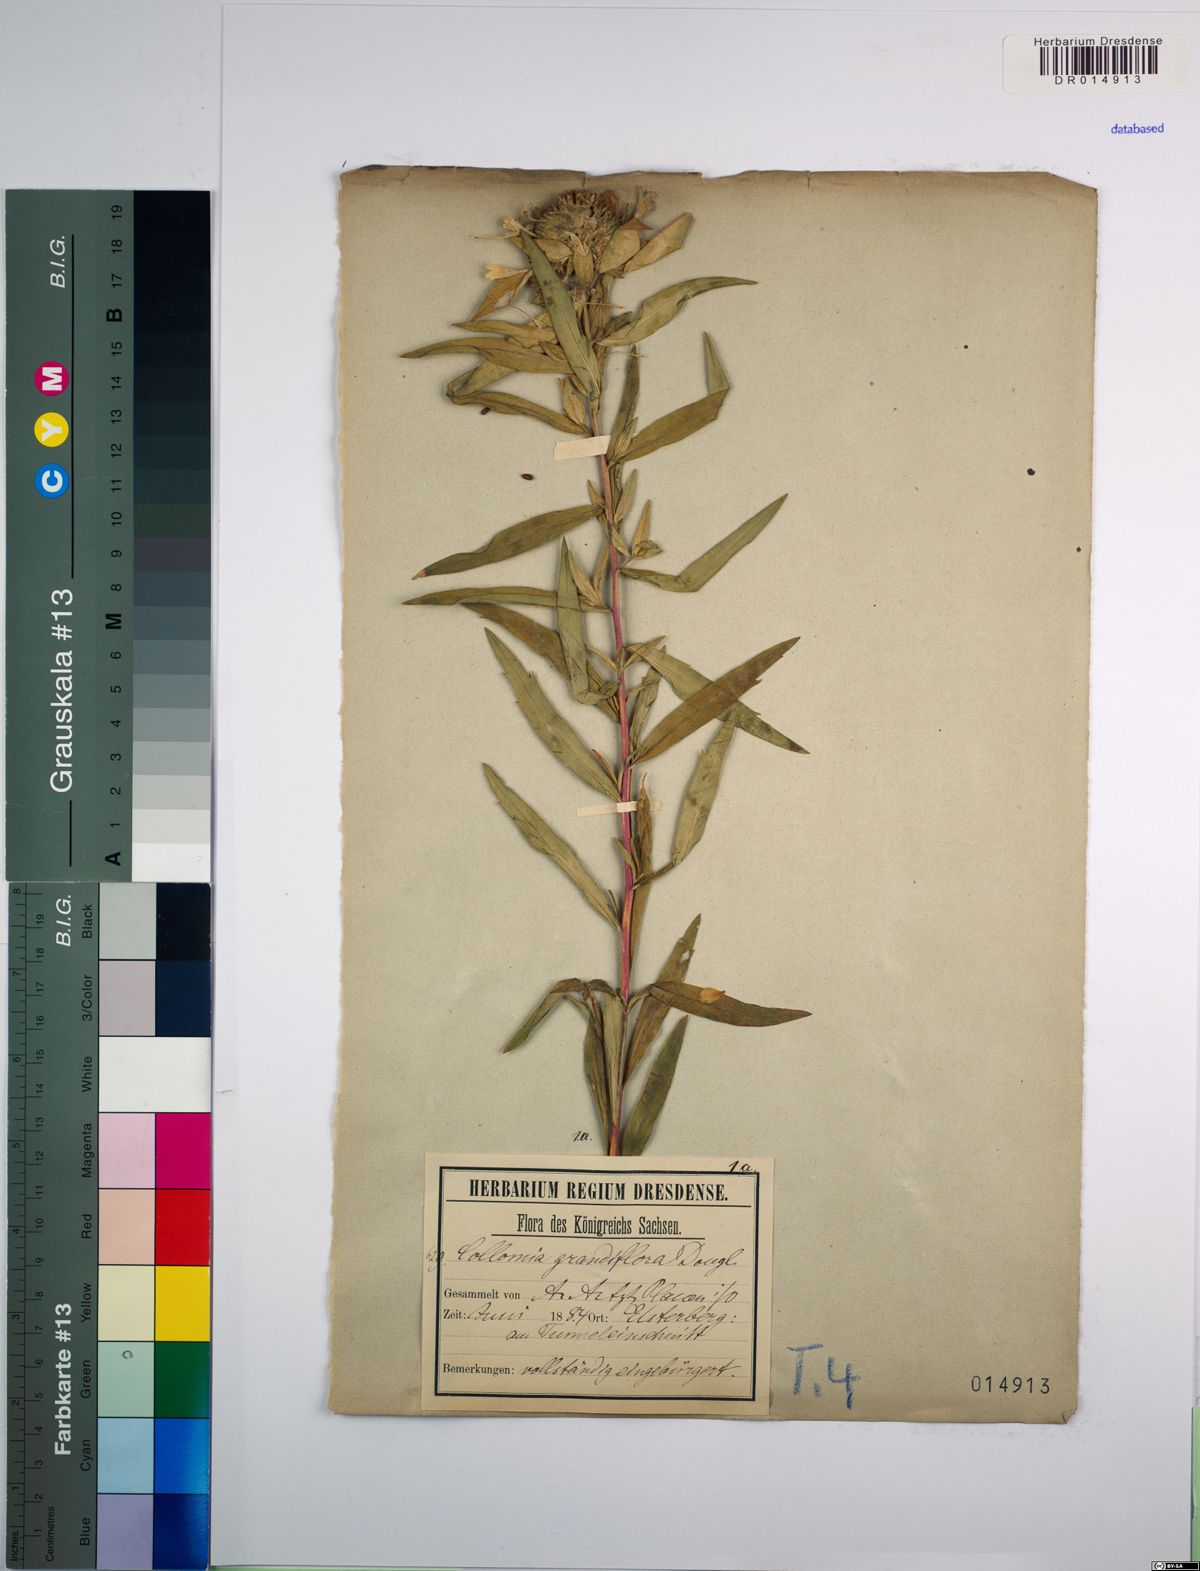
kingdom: Plantae
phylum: Tracheophyta
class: Magnoliopsida
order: Ericales
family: Polemoniaceae
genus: Collomia
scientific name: Collomia grandiflora
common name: California strawflower
